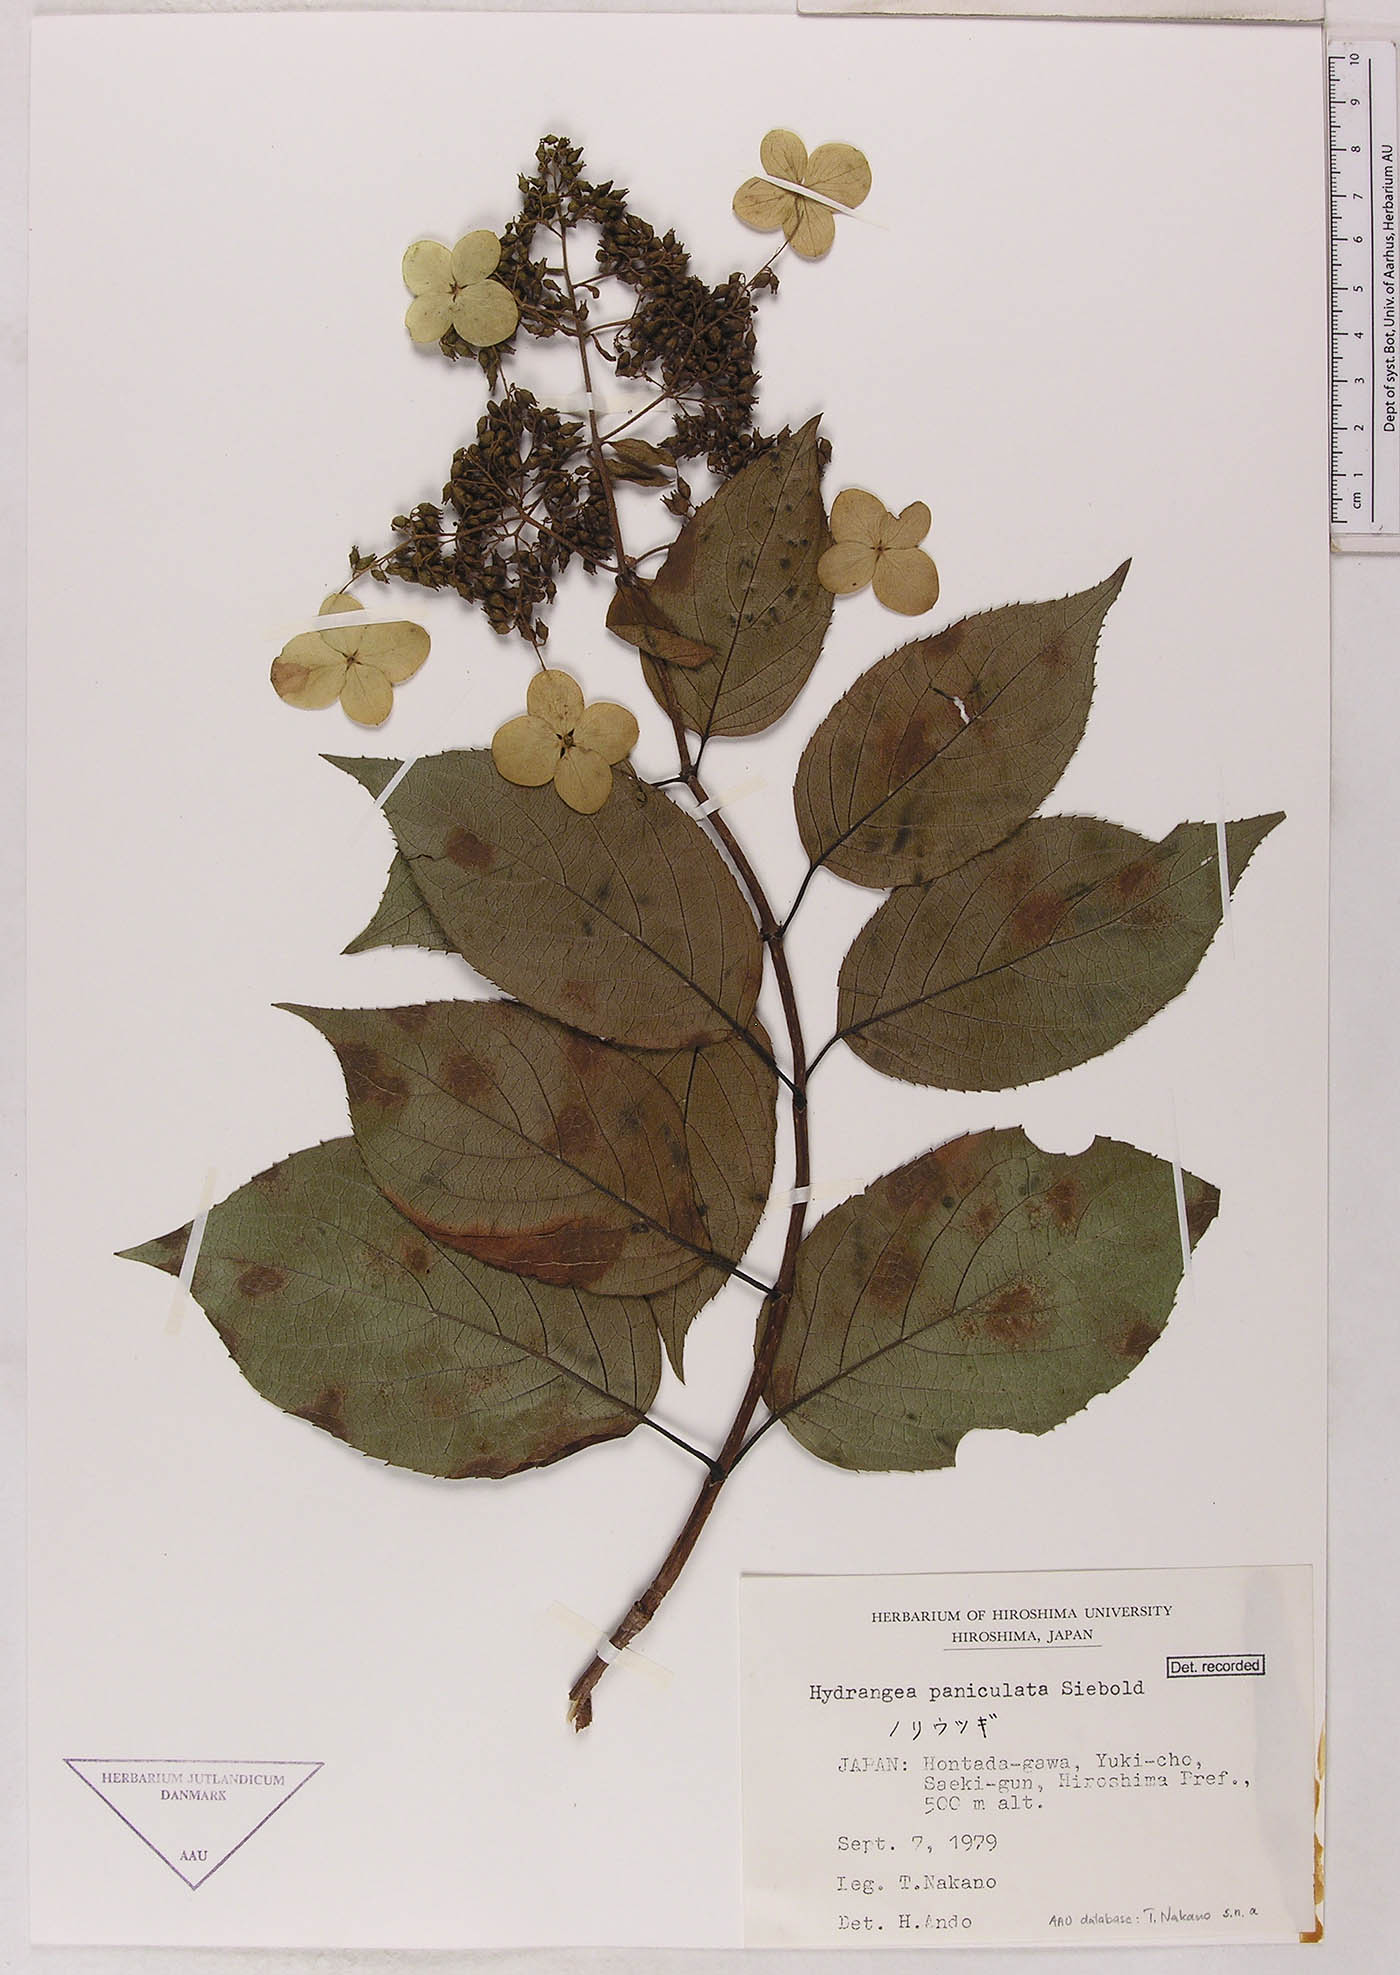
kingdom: Plantae
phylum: Tracheophyta
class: Magnoliopsida
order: Cornales
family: Hydrangeaceae
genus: Hydrangea
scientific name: Hydrangea paniculata
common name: Panicled hydrangea
